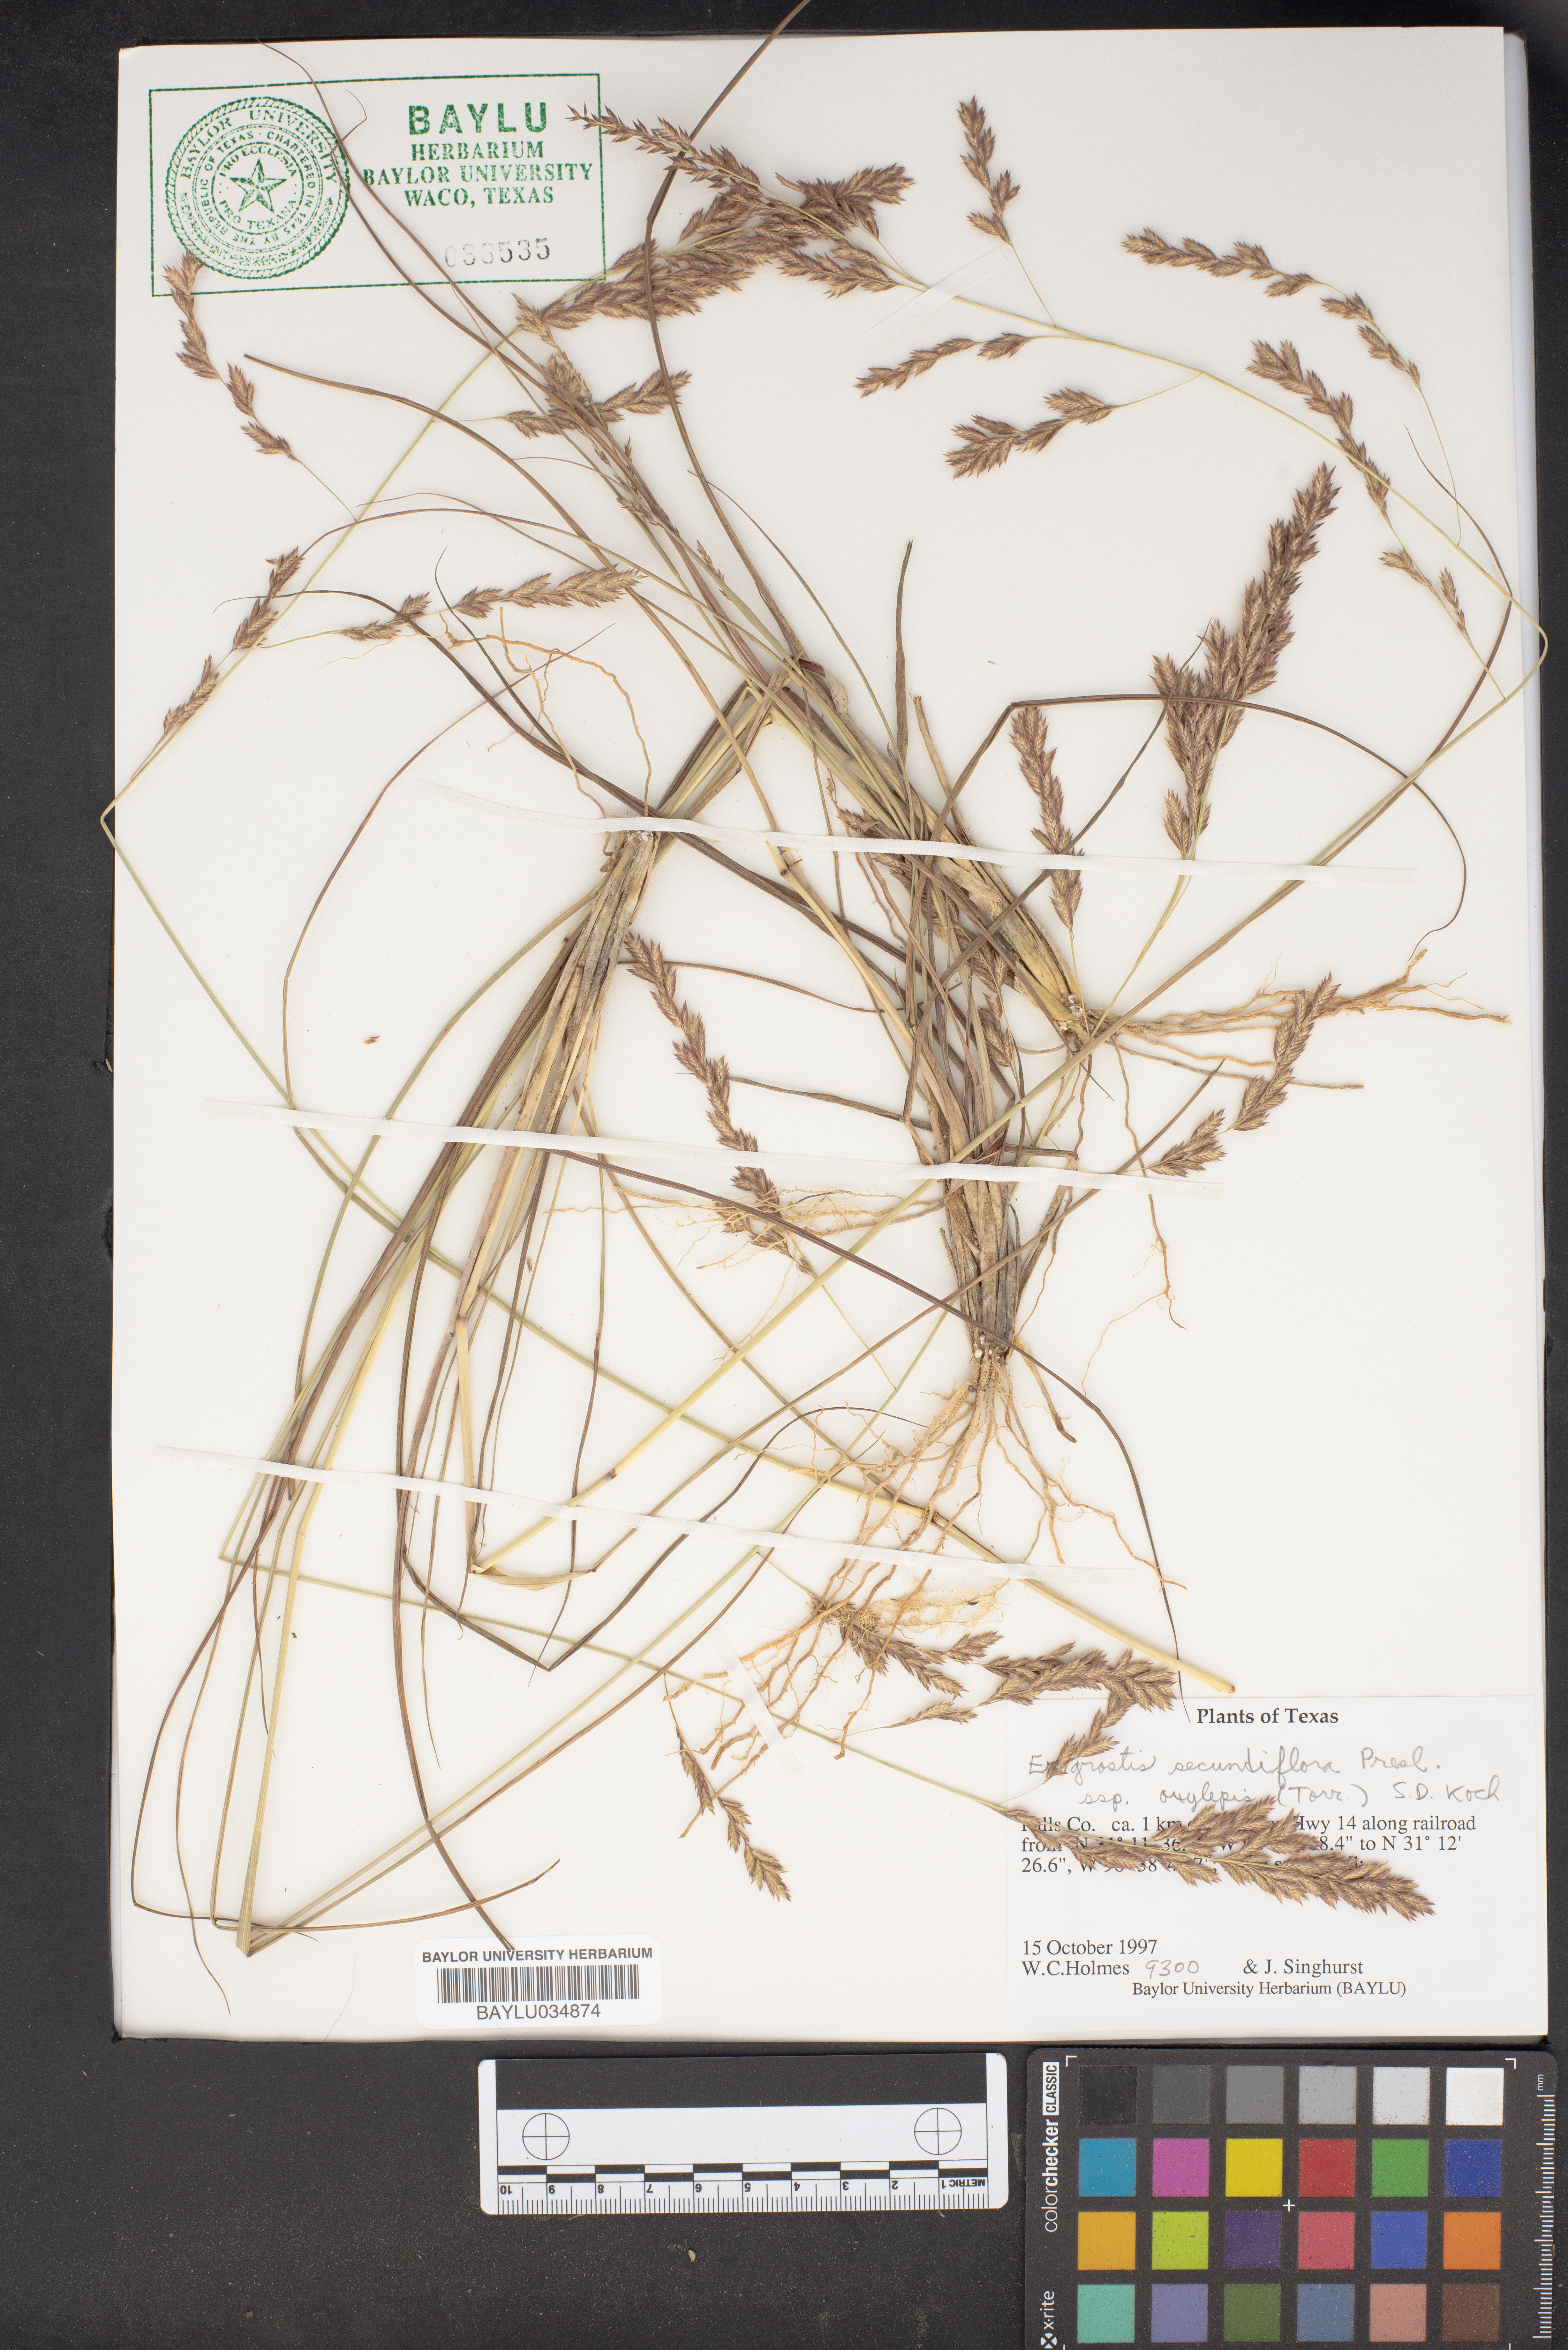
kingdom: Plantae
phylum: Tracheophyta
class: Liliopsida
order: Poales
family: Poaceae
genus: Eragrostis
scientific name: Eragrostis secundiflora
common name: Red love grass
